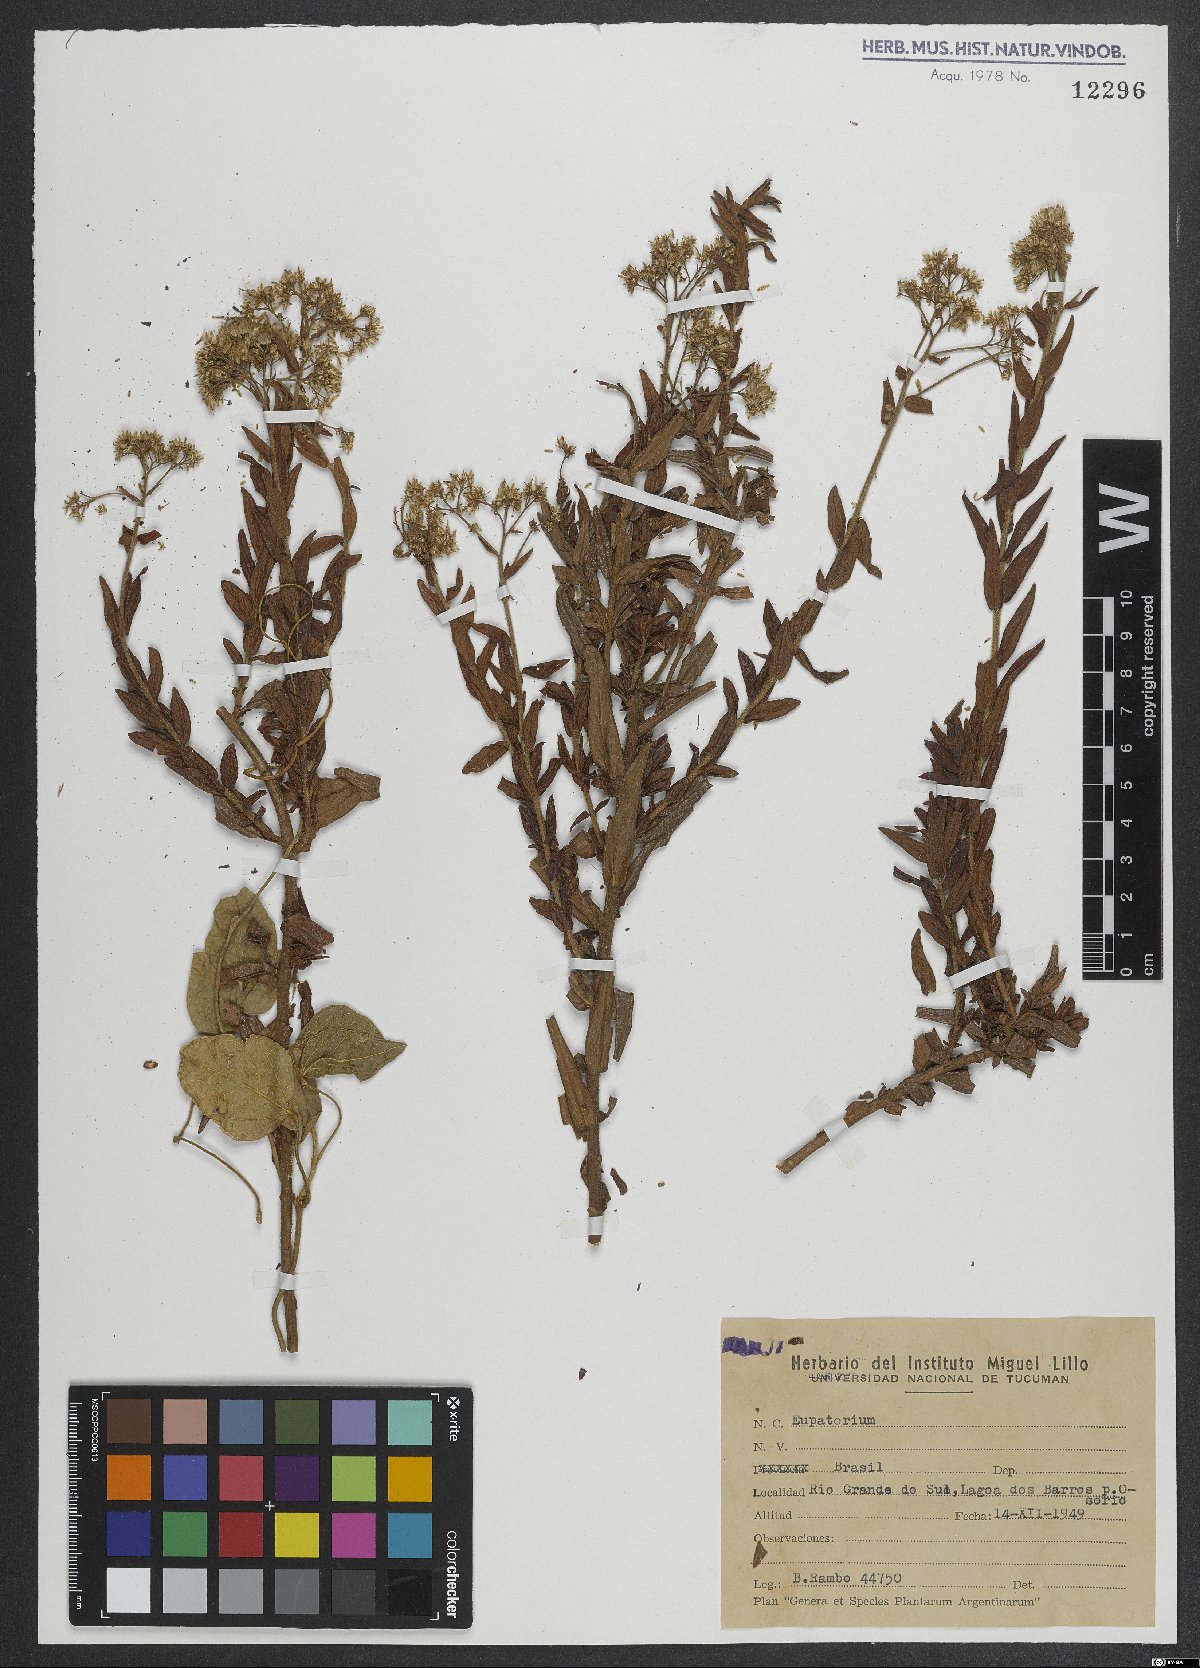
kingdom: Plantae
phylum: Tracheophyta
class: Magnoliopsida
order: Asterales
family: Asteraceae
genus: Eupatorium
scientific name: Eupatorium
